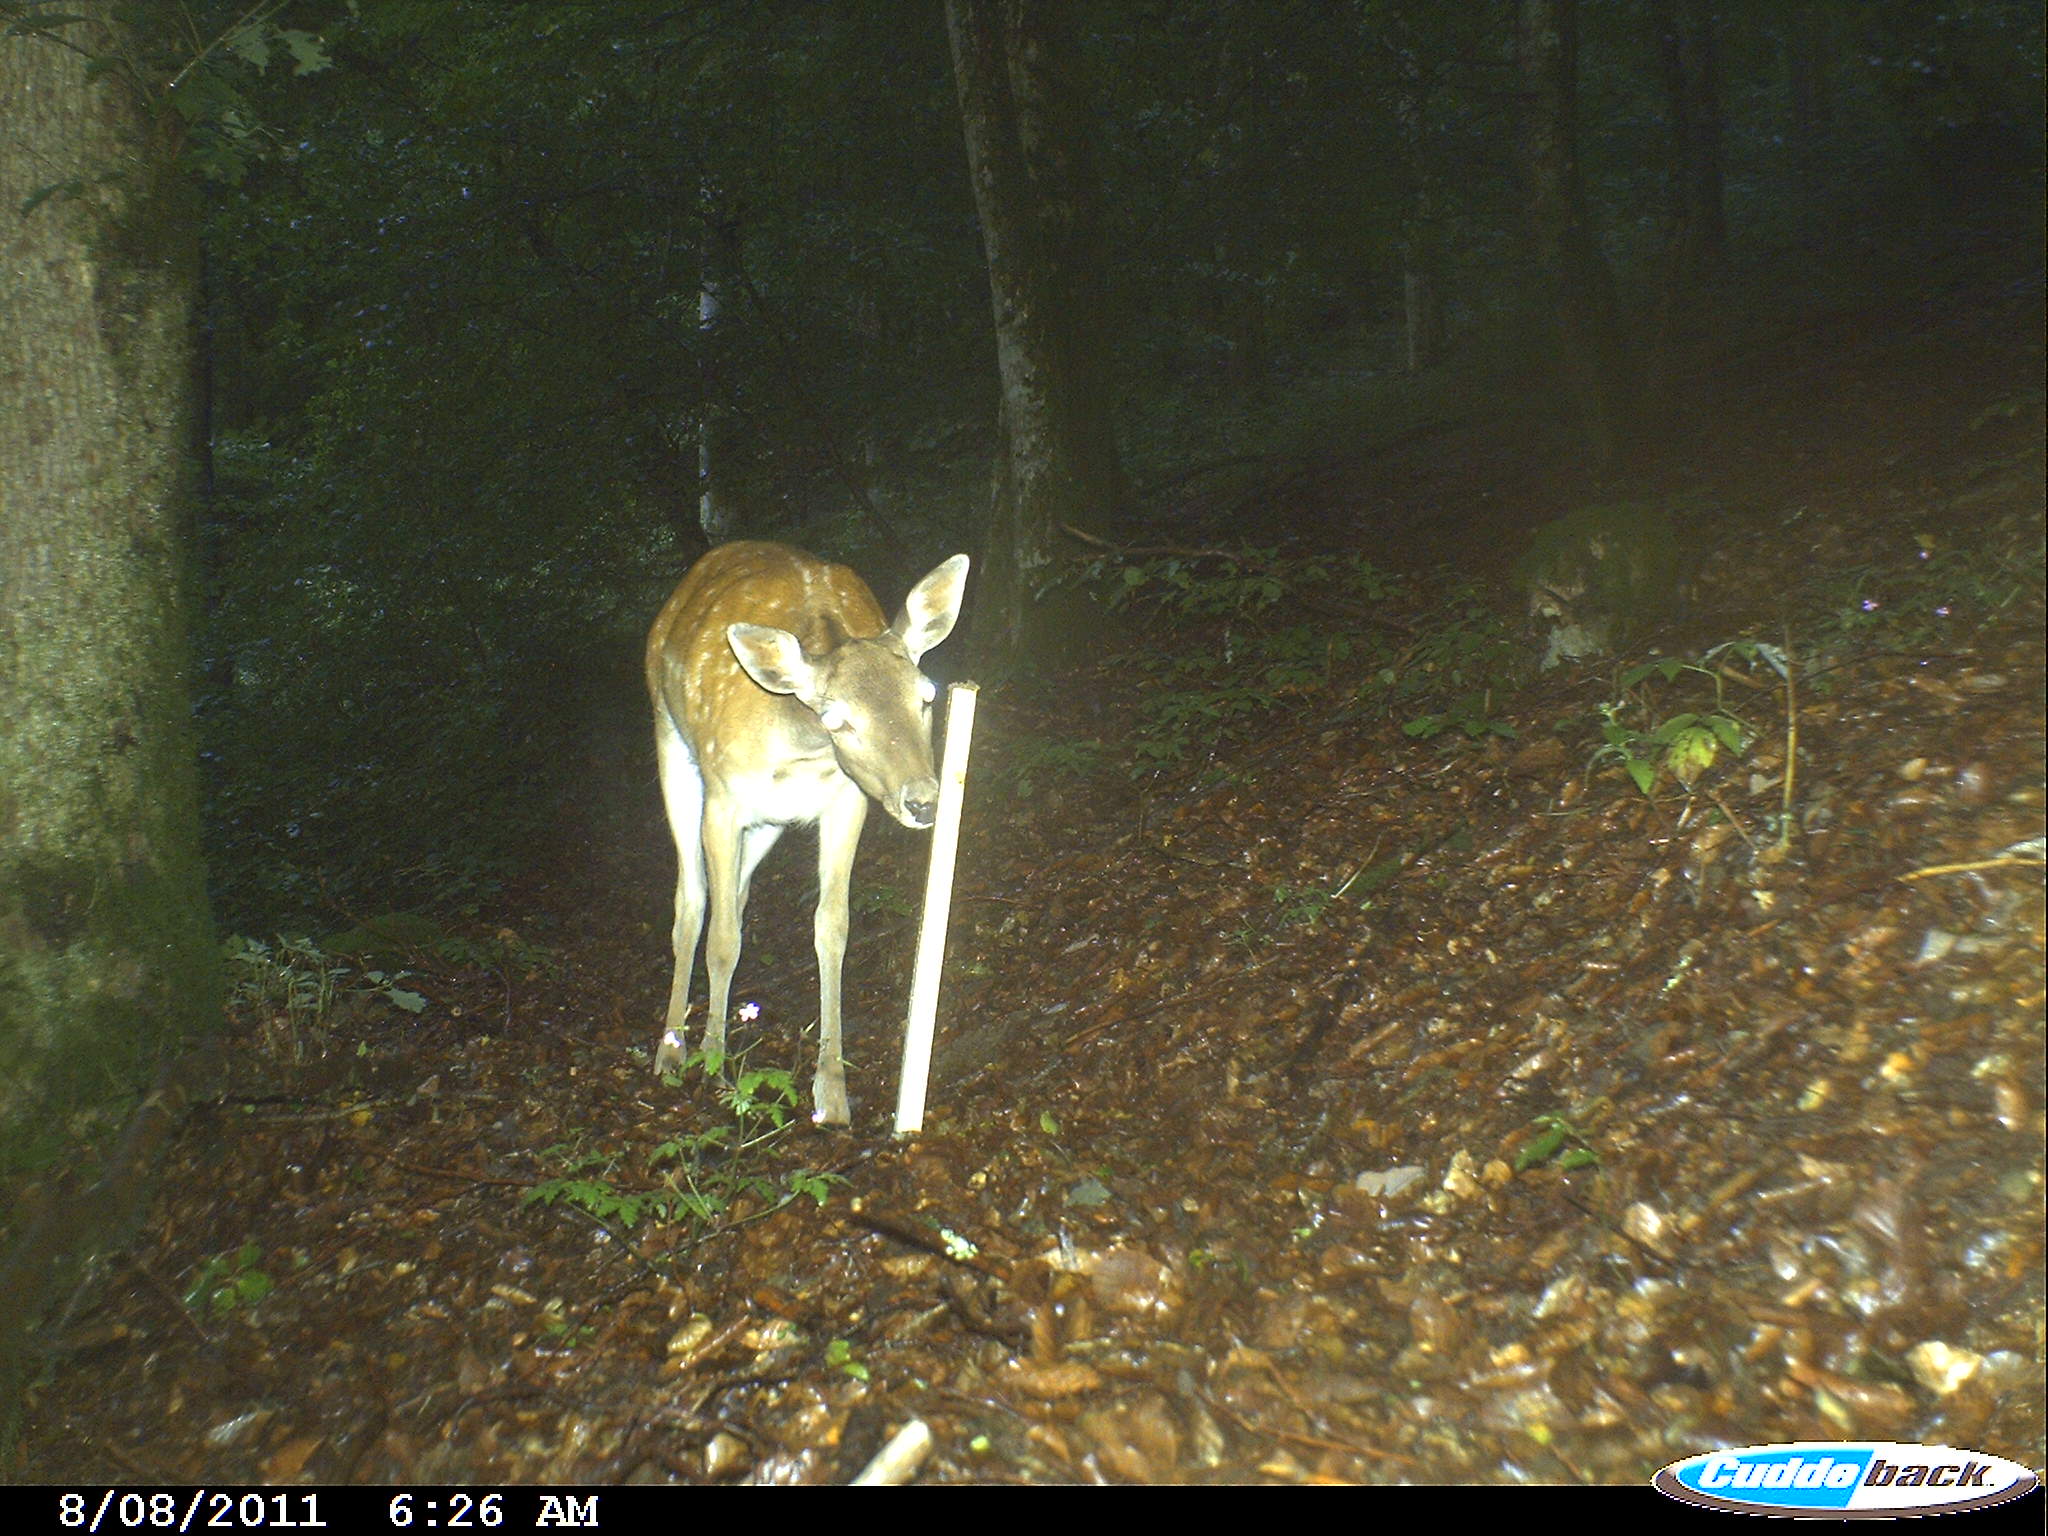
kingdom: Animalia
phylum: Chordata
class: Mammalia
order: Artiodactyla
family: Cervidae
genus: Dama
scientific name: Dama dama
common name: Fallow deer
